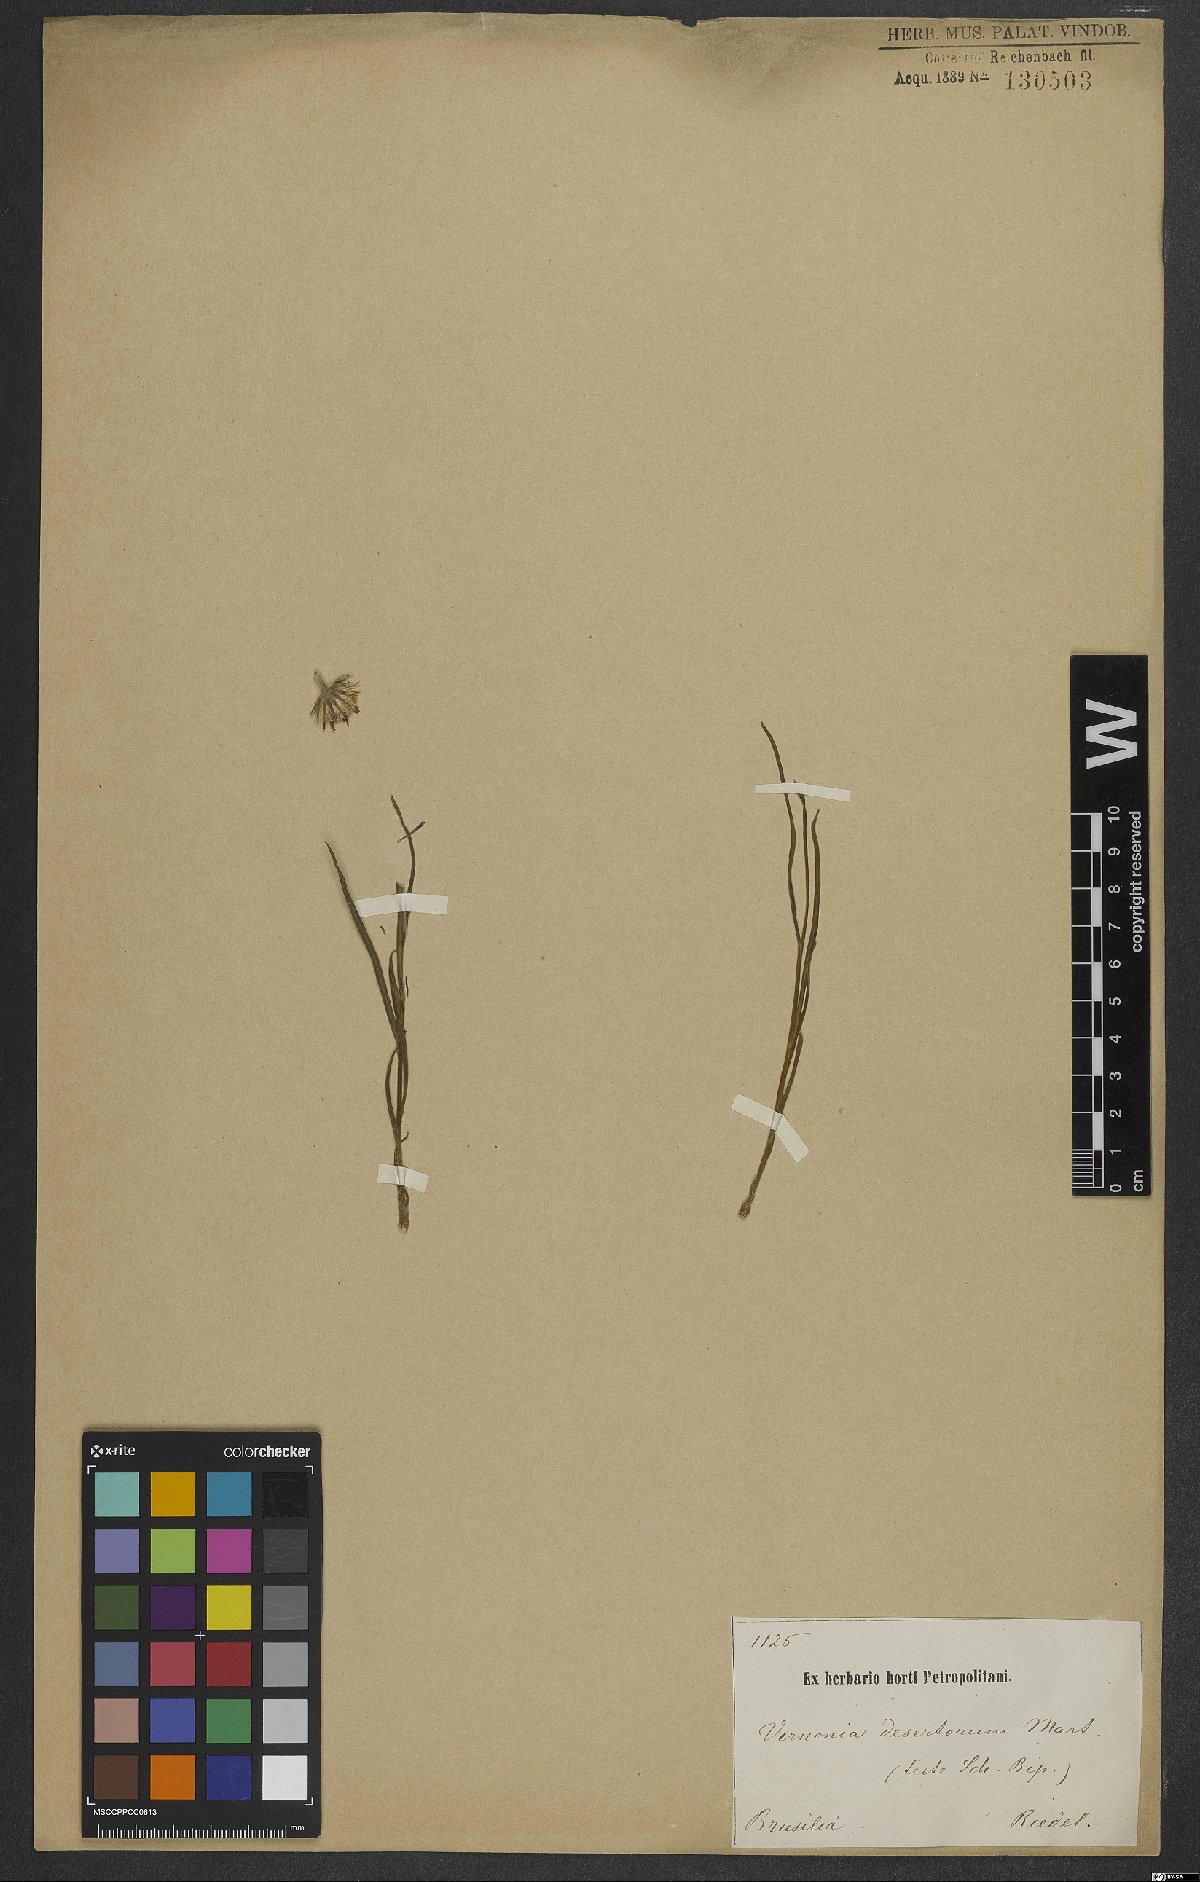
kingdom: Plantae
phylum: Tracheophyta
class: Magnoliopsida
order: Asterales
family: Asteraceae
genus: Chrysolaena
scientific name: Chrysolaena desertorum
